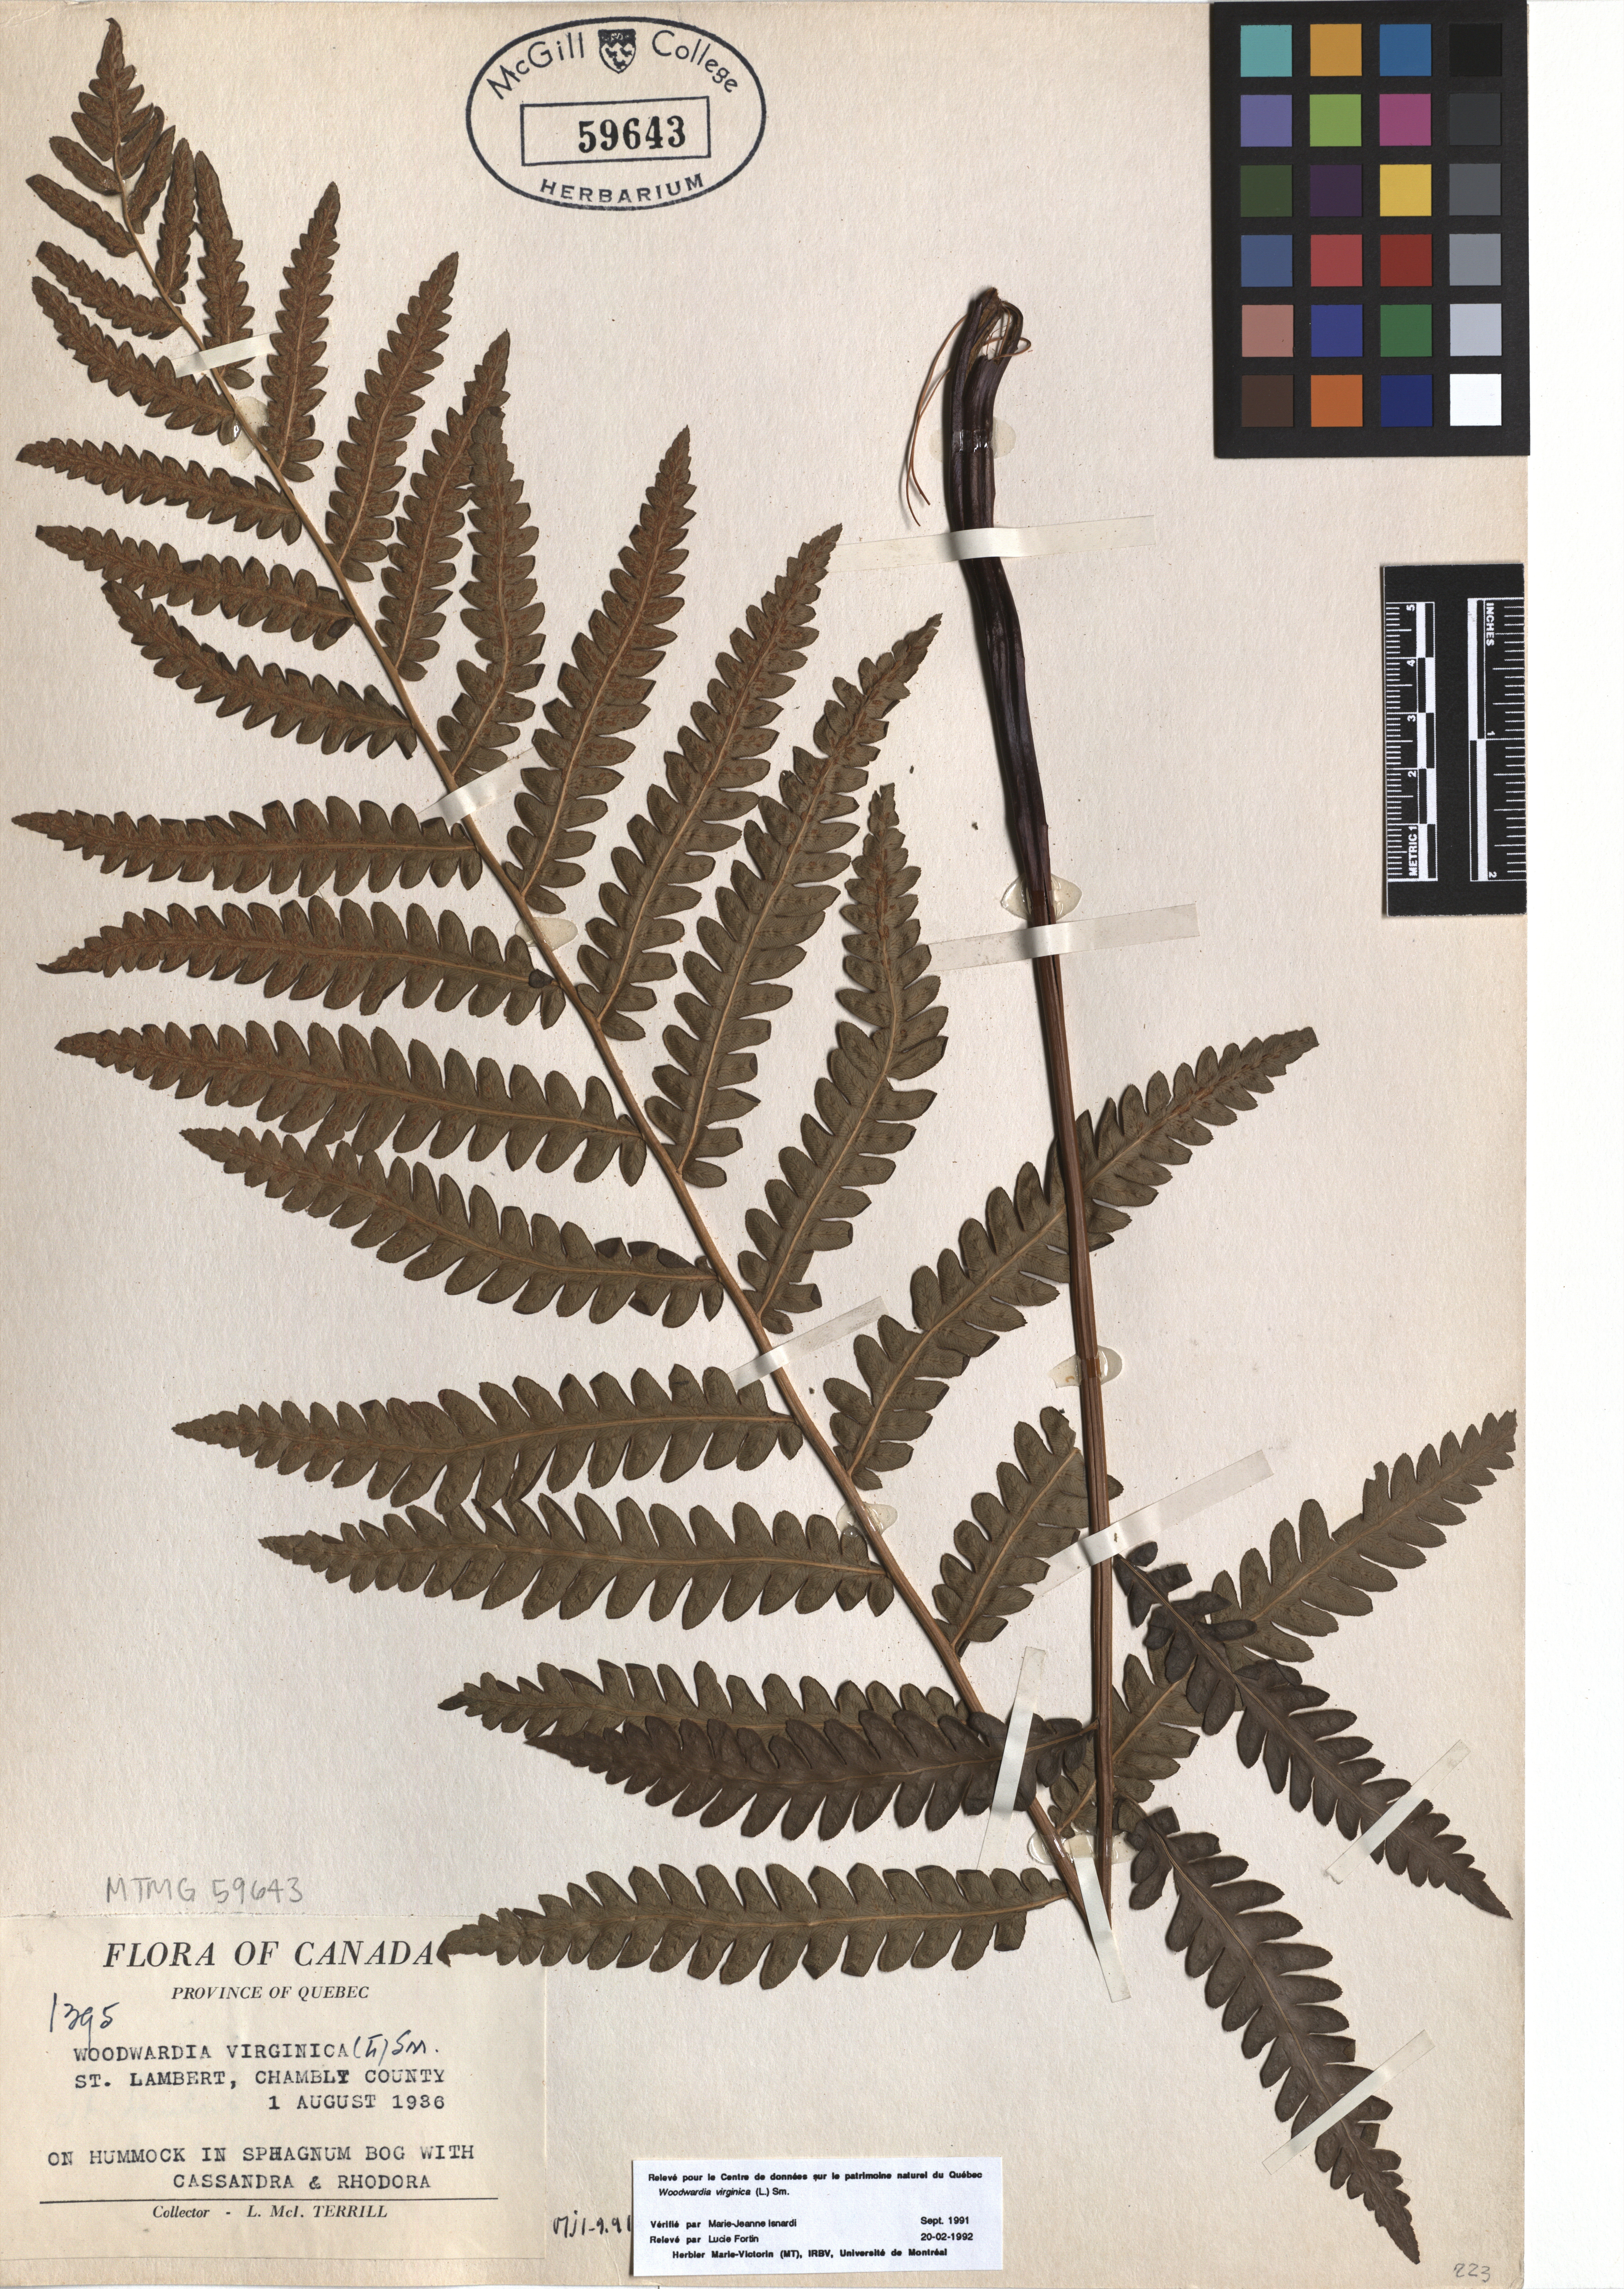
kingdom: Plantae
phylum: Tracheophyta
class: Polypodiopsida
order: Polypodiales
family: Blechnaceae
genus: Anchistea
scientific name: Anchistea virginica
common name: Virginia chain fern
